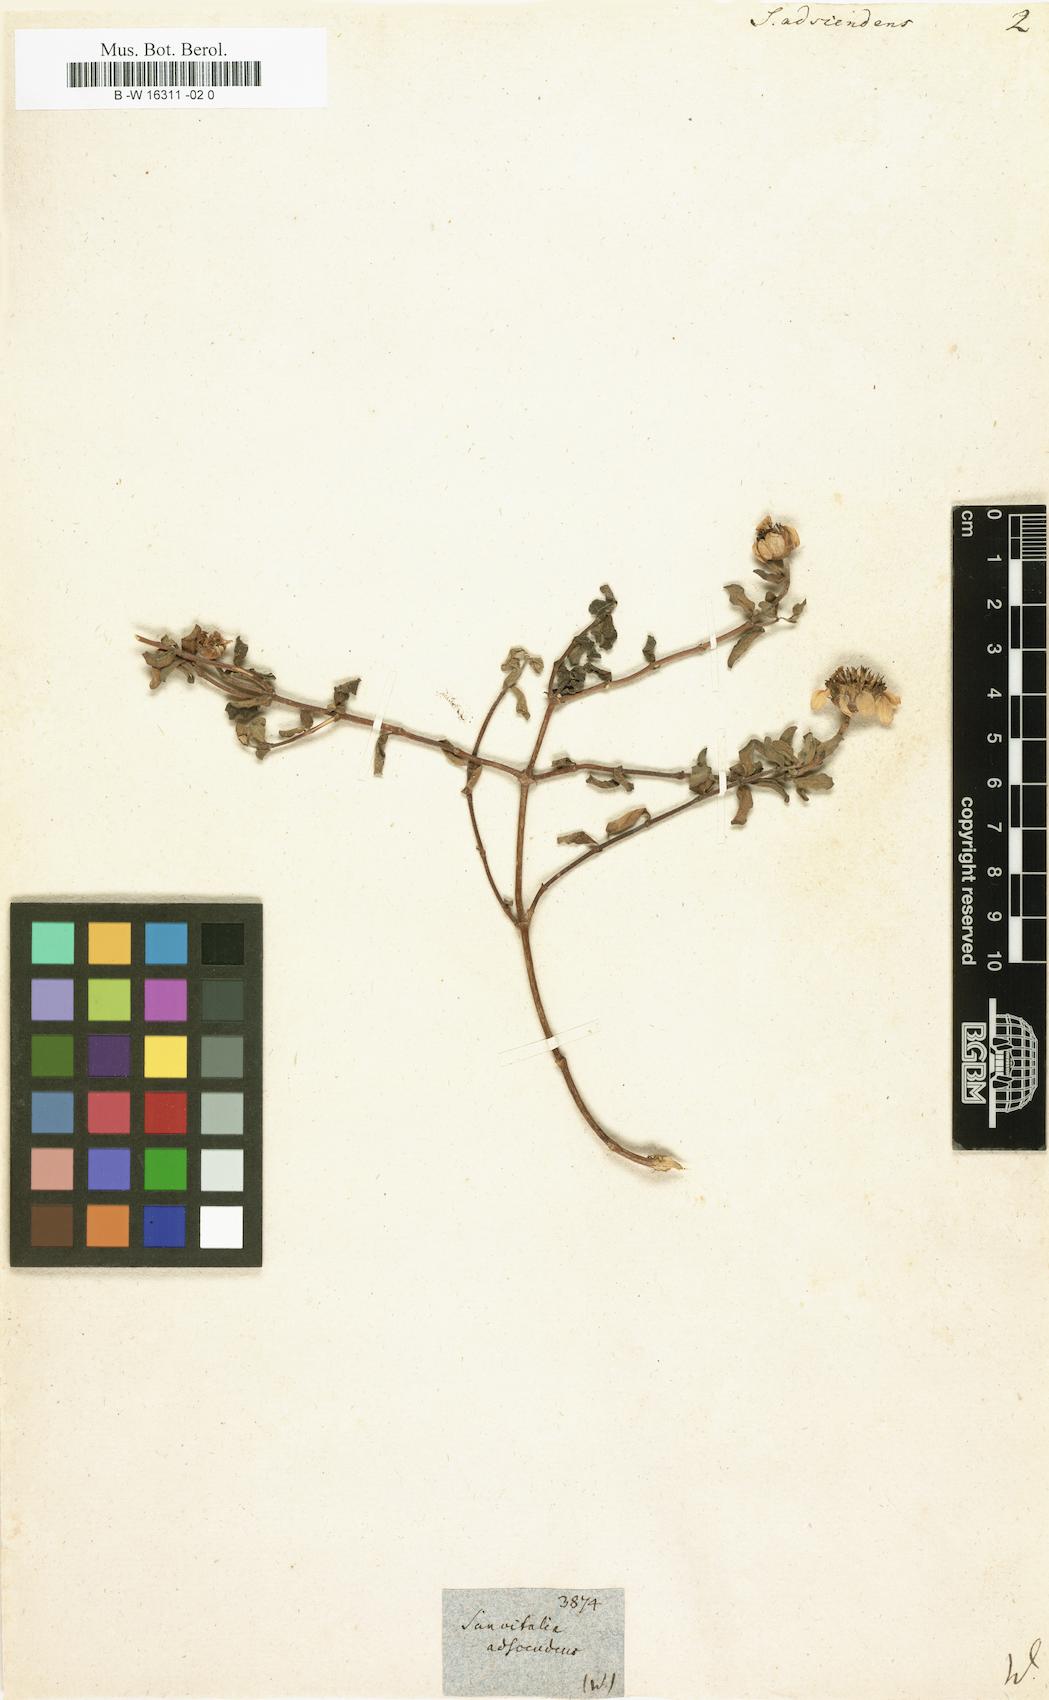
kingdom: Plantae
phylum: Tracheophyta
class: Magnoliopsida
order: Asterales
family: Asteraceae
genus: Sanvitalia
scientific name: Sanvitalia
